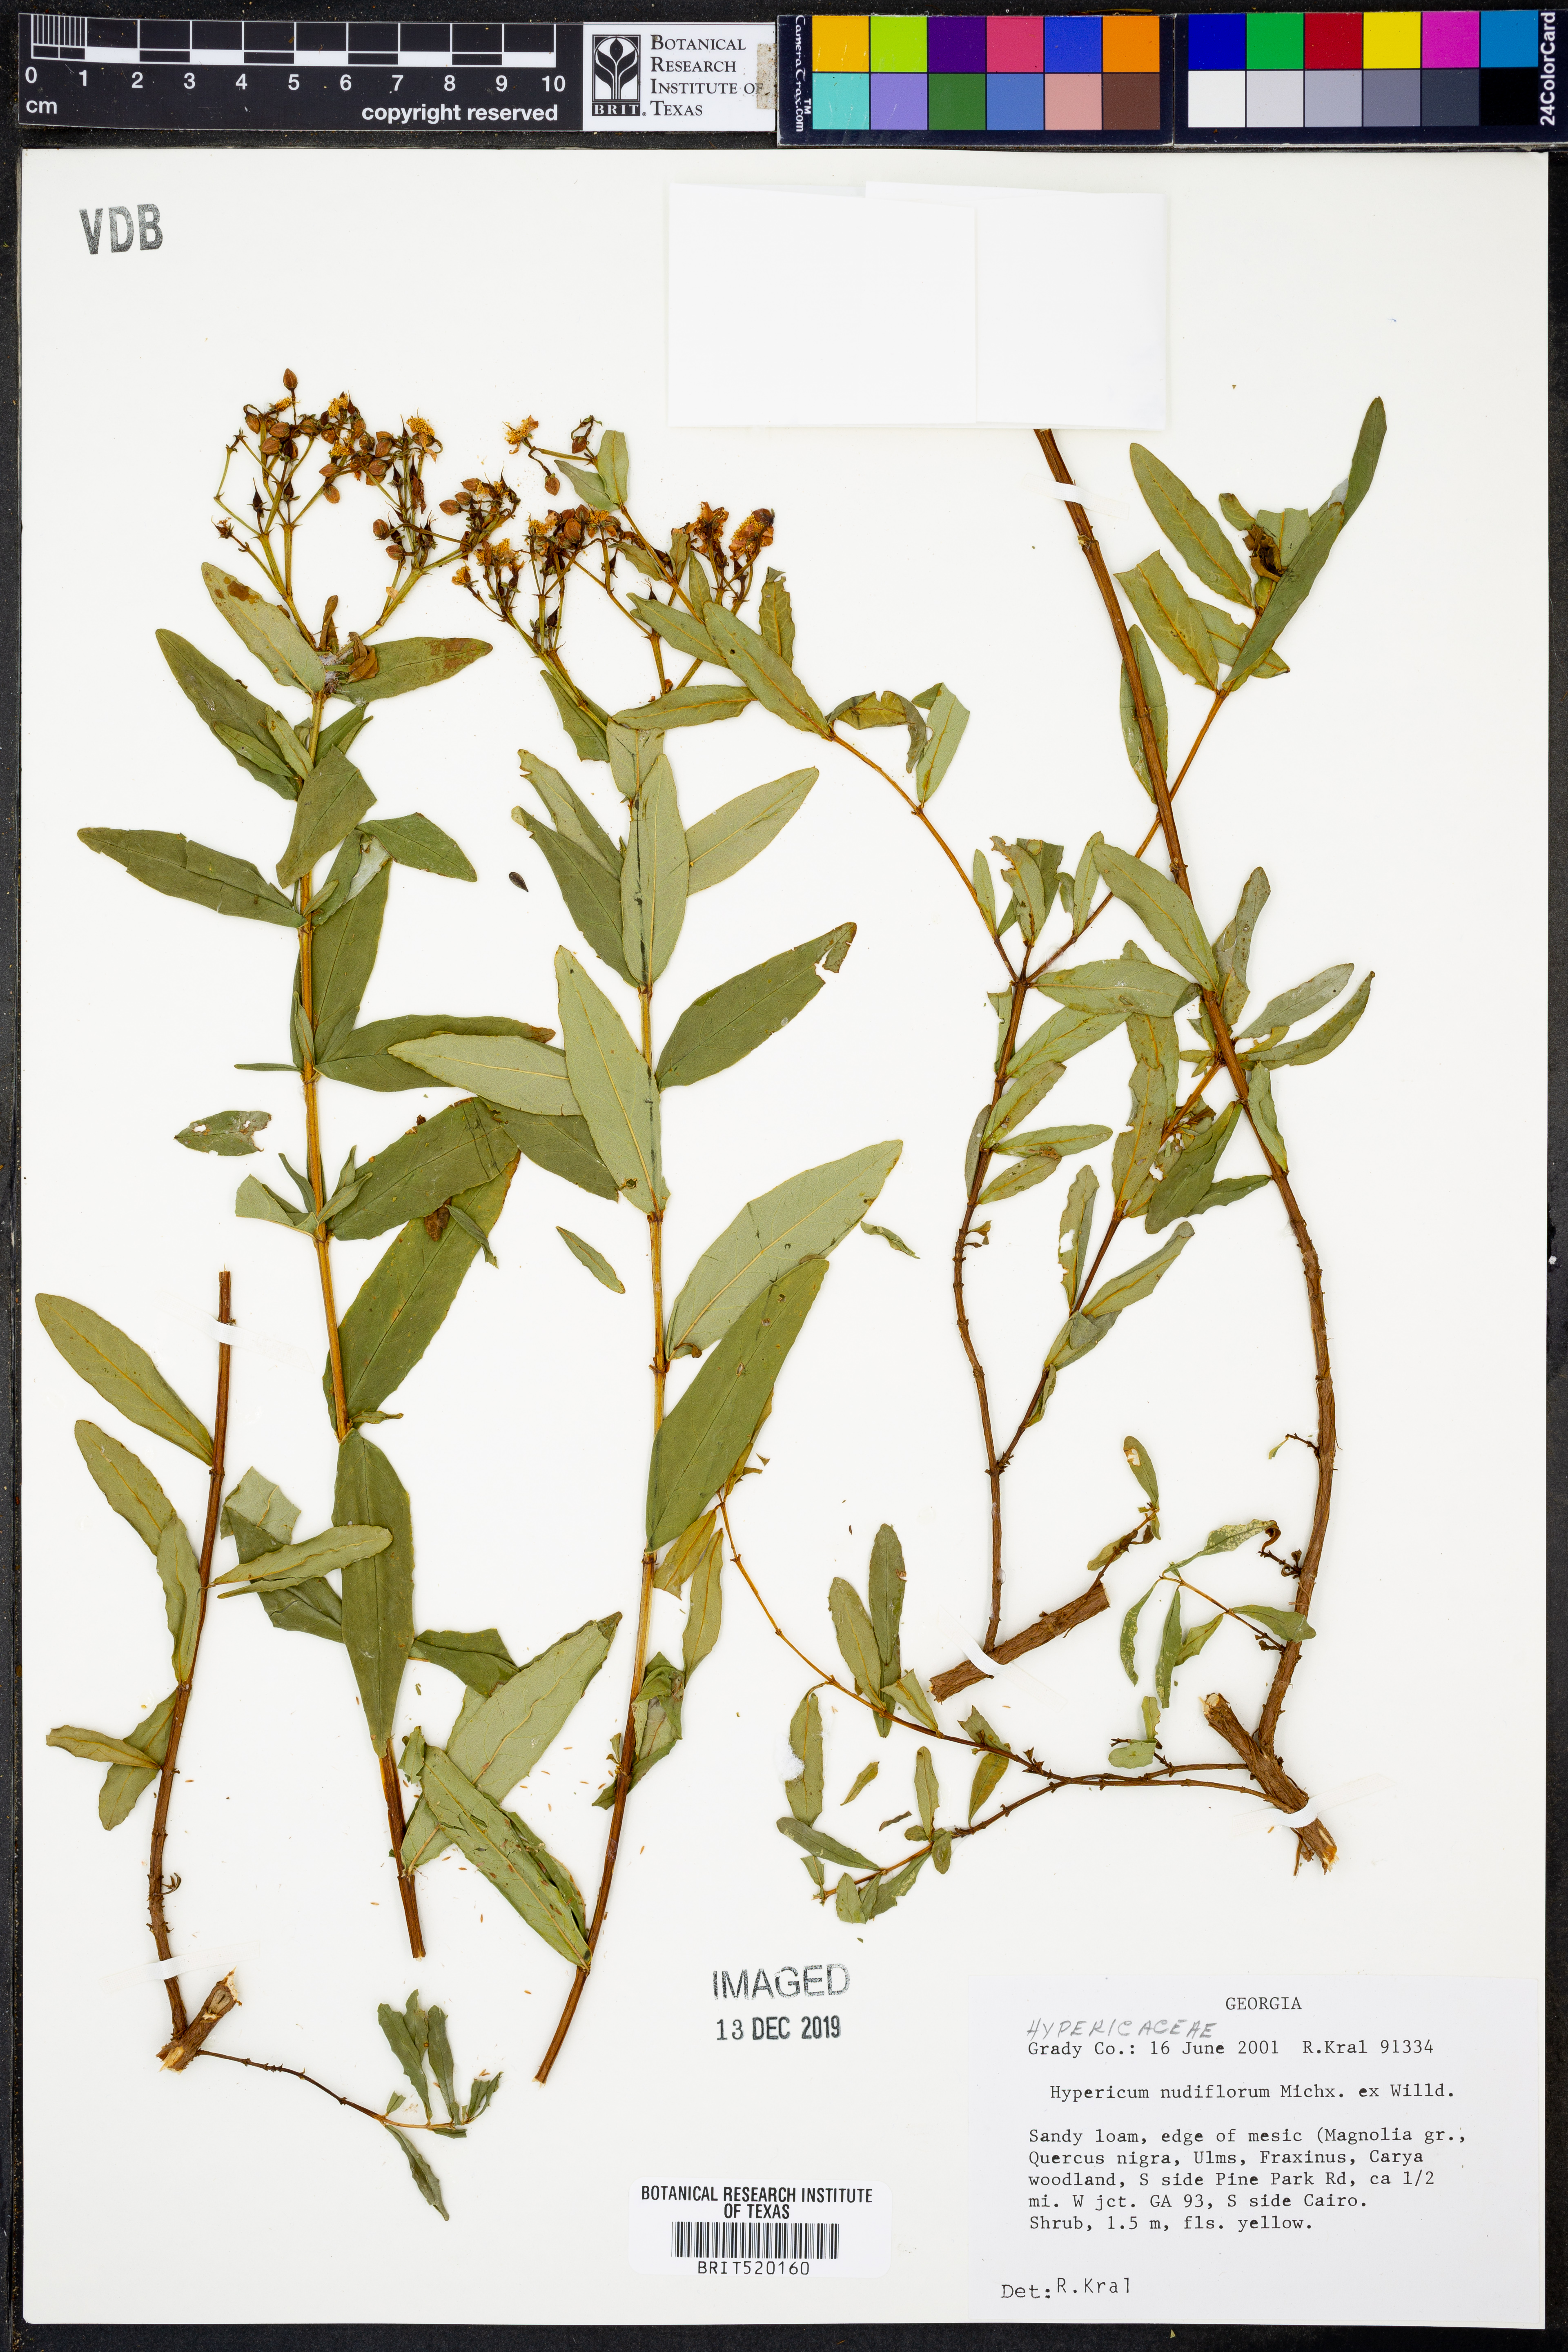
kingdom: Plantae
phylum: Tracheophyta
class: Magnoliopsida
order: Malpighiales
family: Hypericaceae
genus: Hypericum
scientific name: Hypericum nudiflorum
